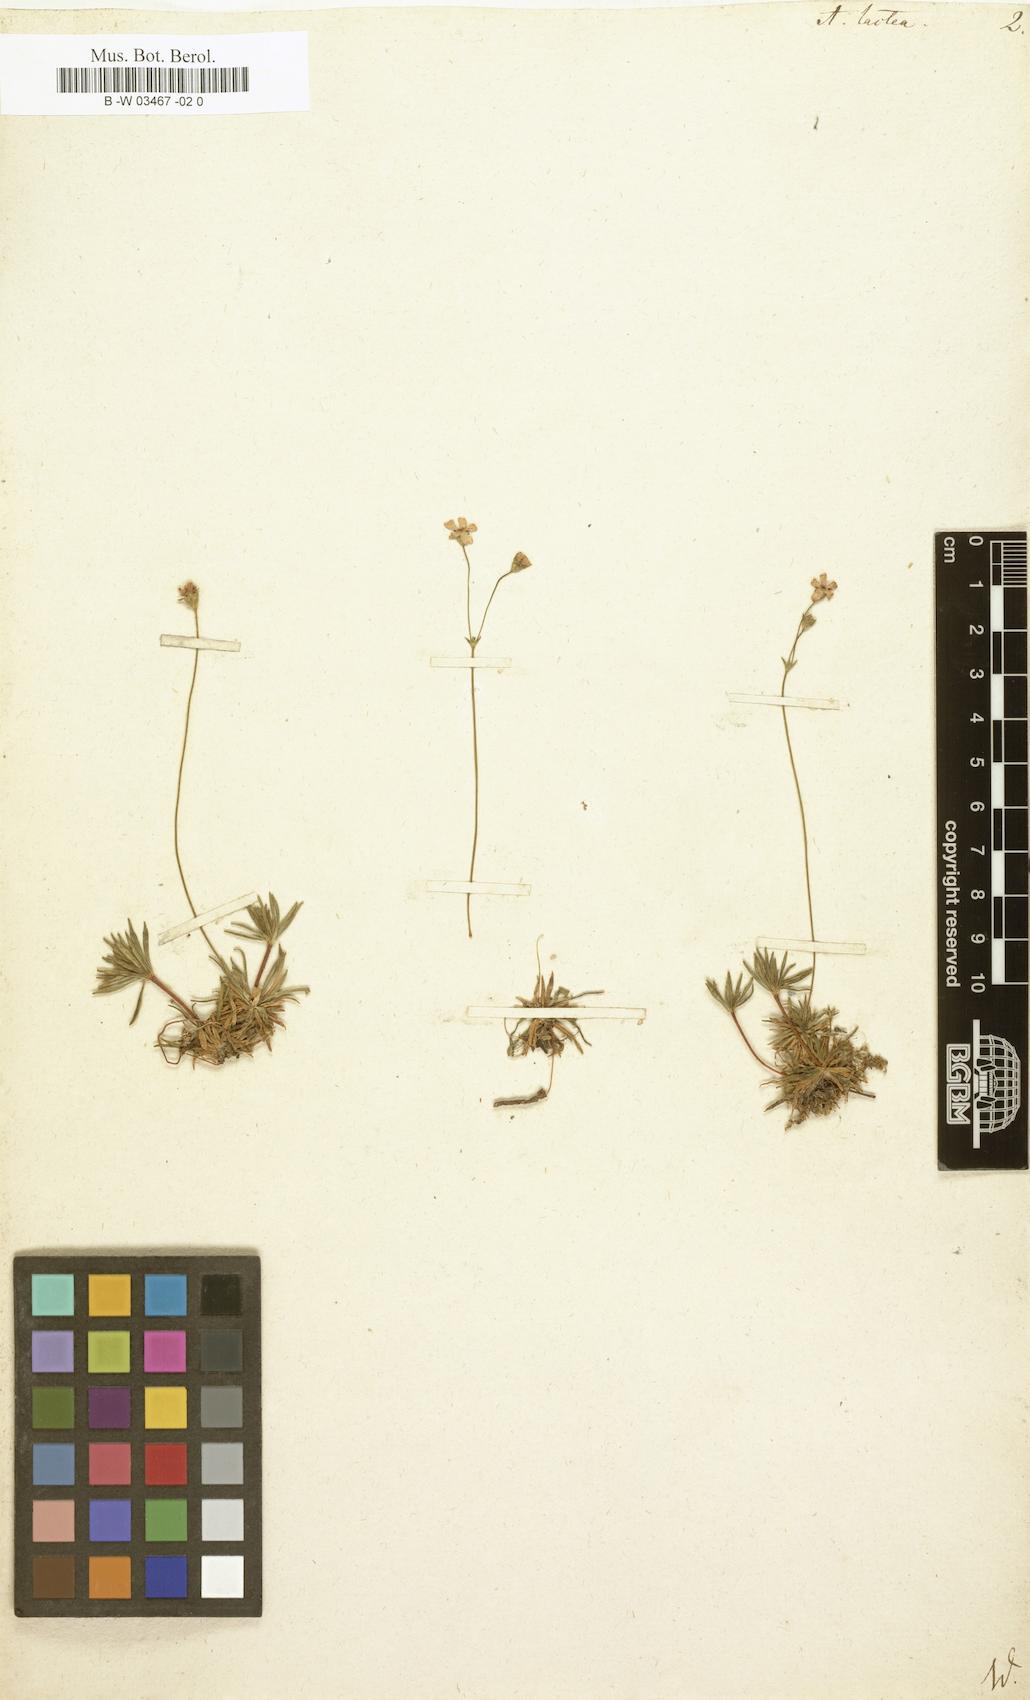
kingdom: Plantae
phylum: Tracheophyta
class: Magnoliopsida
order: Ericales
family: Primulaceae
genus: Androsace
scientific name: Androsace lactea
